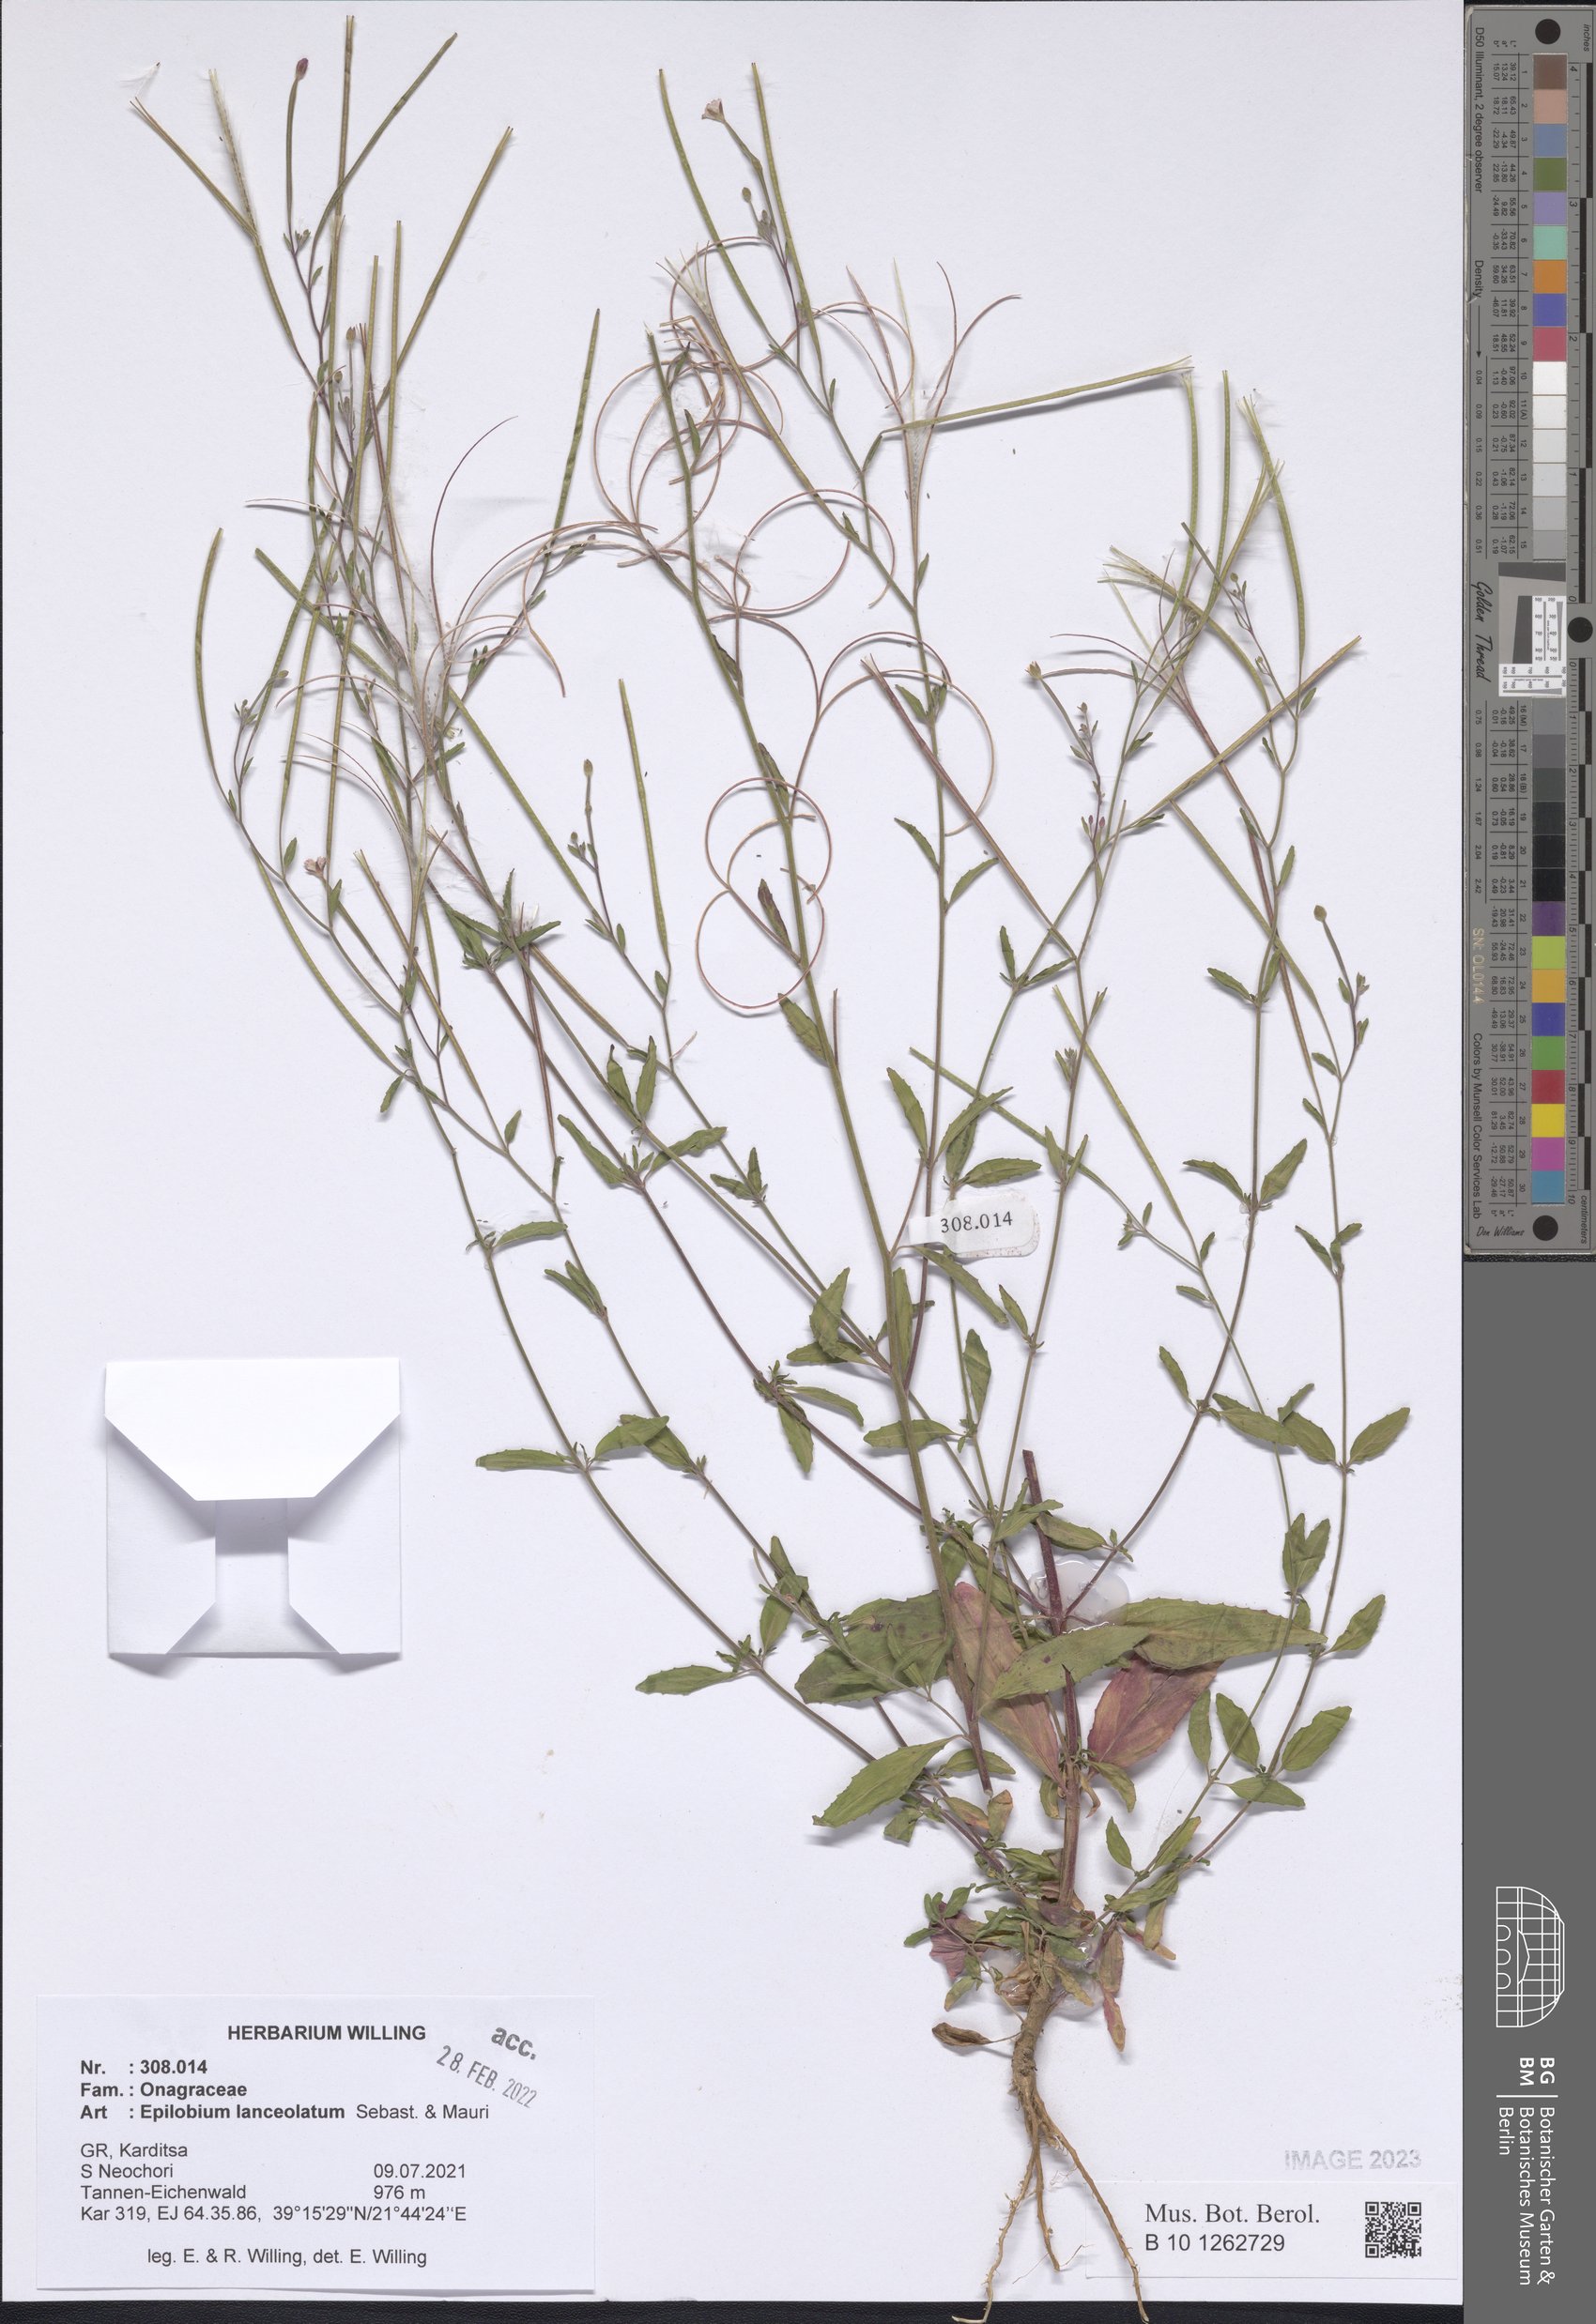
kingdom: Plantae
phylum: Tracheophyta
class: Magnoliopsida
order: Myrtales
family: Onagraceae
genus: Epilobium
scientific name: Epilobium lanceolatum
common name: Spear-leaved willowherb
